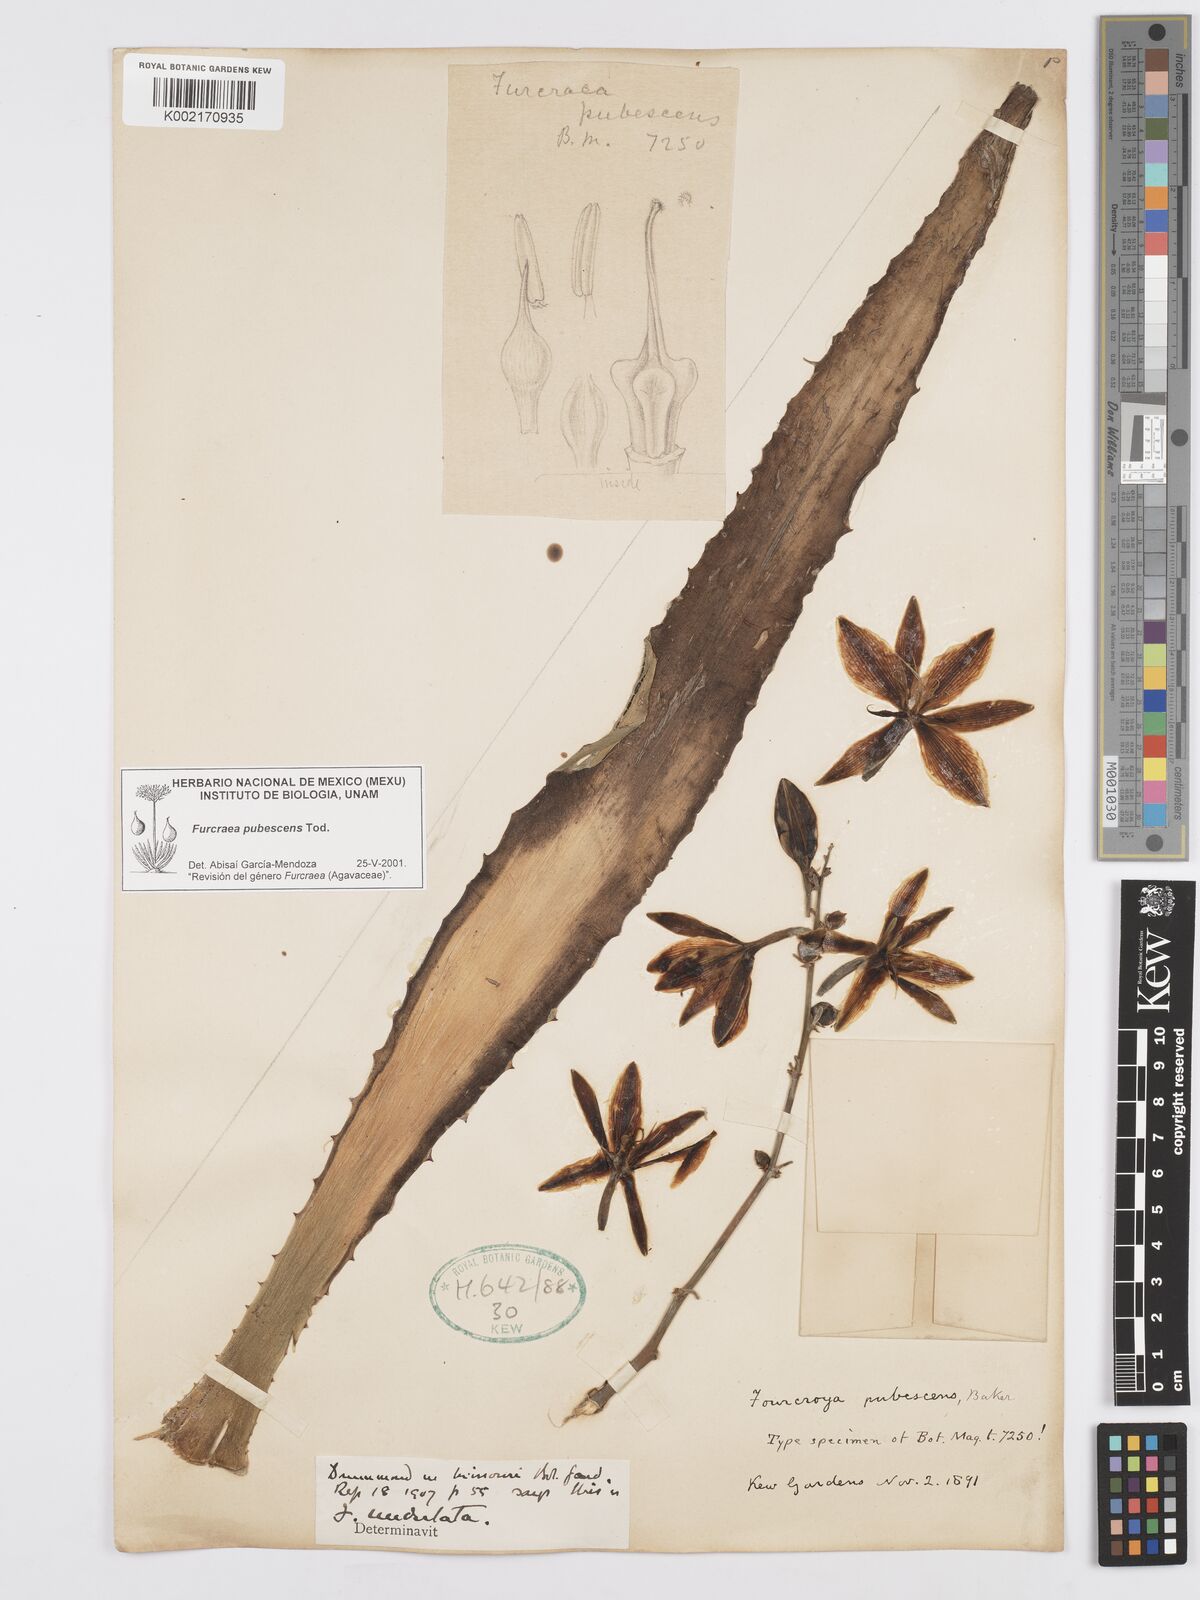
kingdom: Plantae
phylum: Tracheophyta
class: Liliopsida
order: Asparagales
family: Asparagaceae
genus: Furcraea
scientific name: Furcraea pubescens
